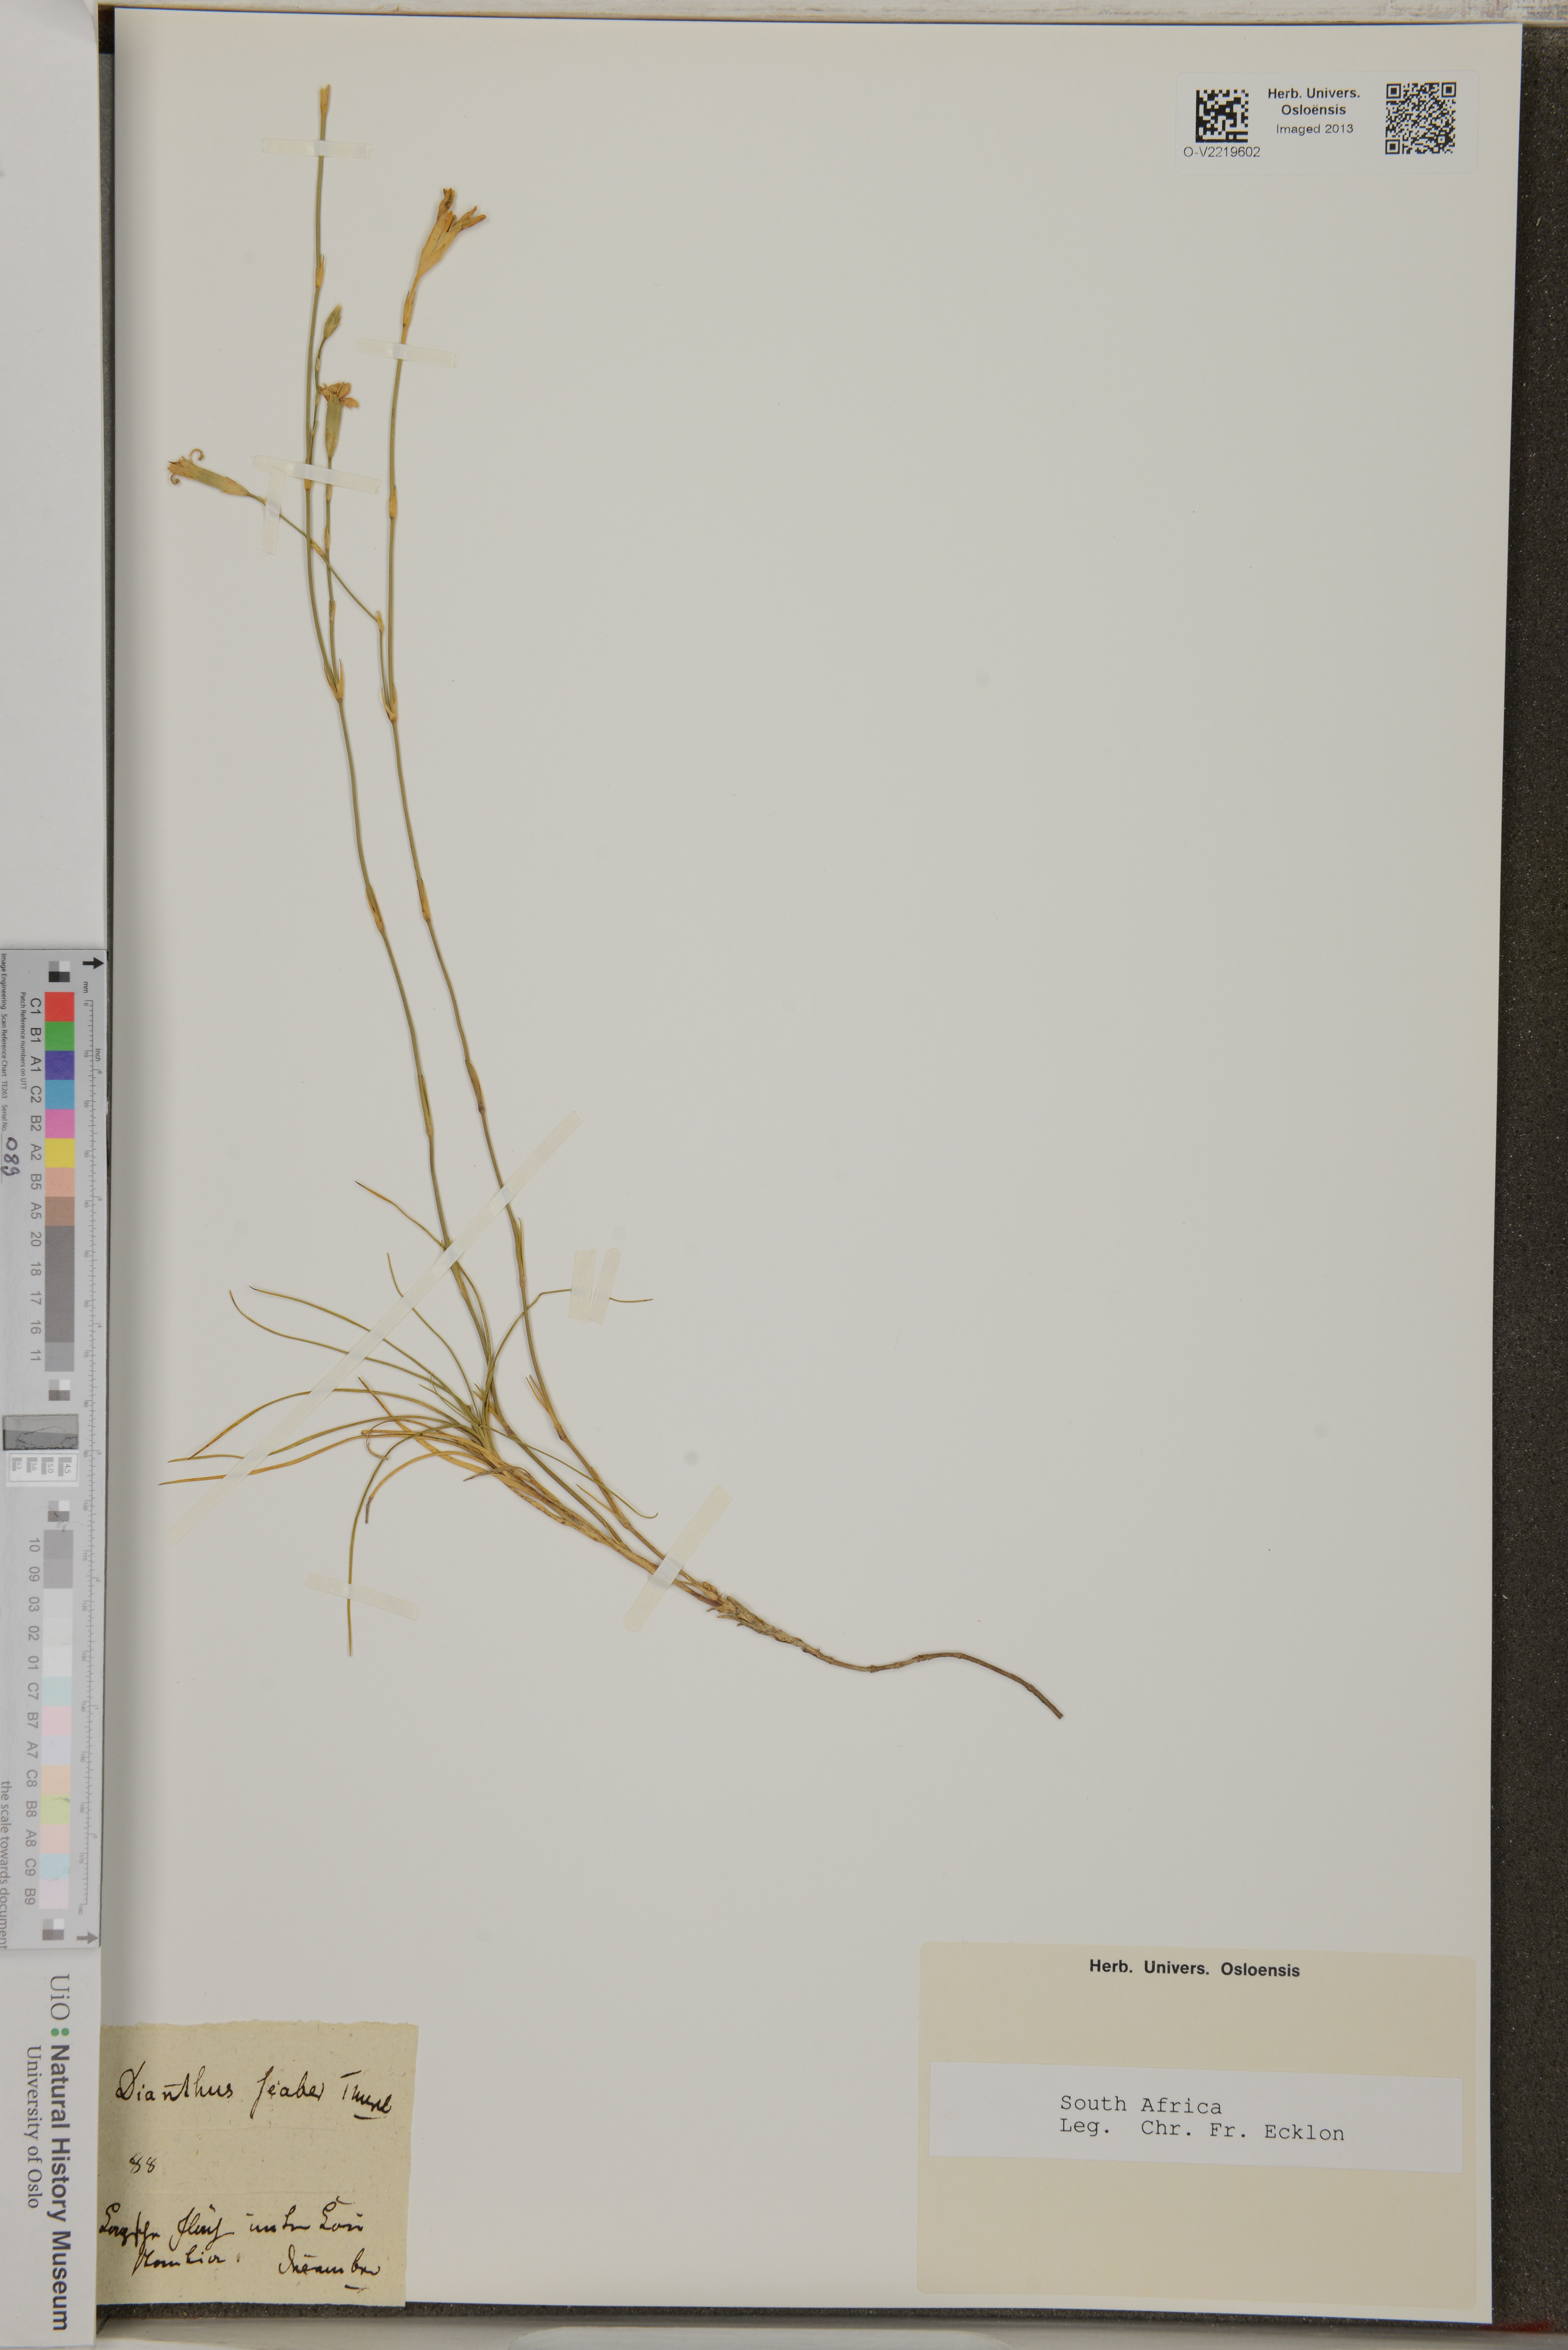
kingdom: Plantae
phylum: Tracheophyta
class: Magnoliopsida
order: Caryophyllales
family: Caryophyllaceae
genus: Dianthus
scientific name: Dianthus scaber
